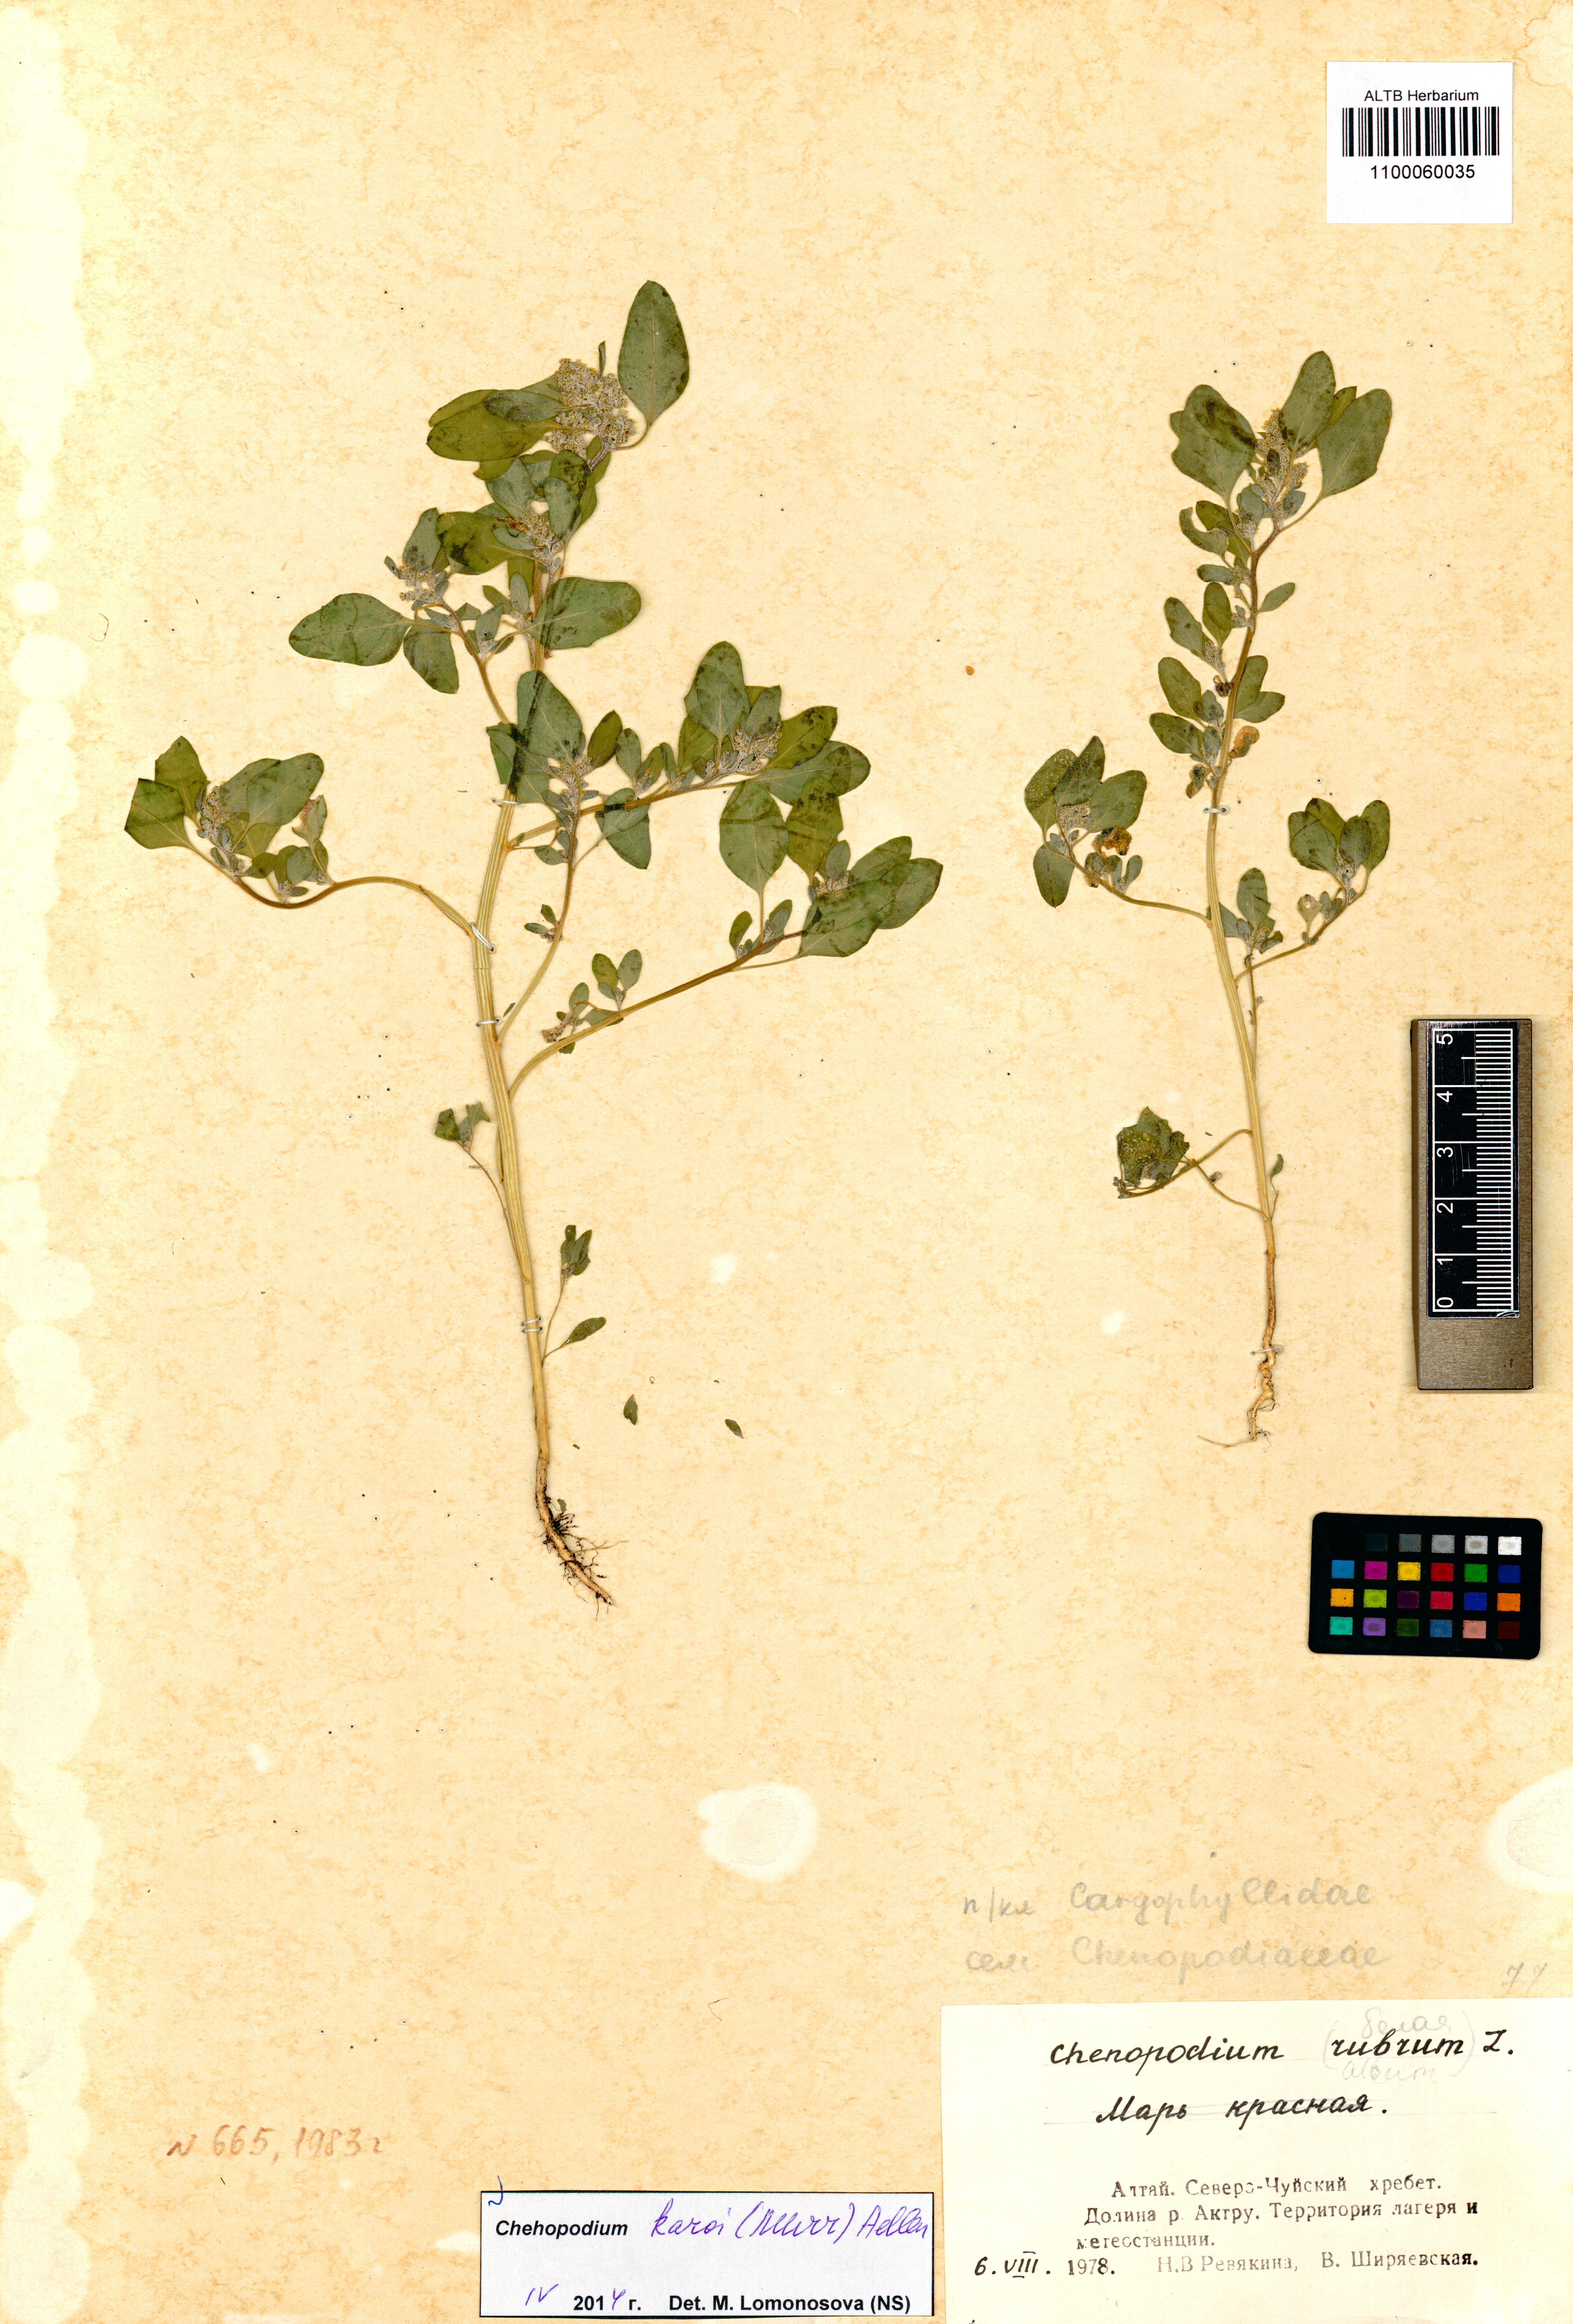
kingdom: Plantae
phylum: Tracheophyta
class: Magnoliopsida
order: Caryophyllales
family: Amaranthaceae
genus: Chenopodium
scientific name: Chenopodium karoi
